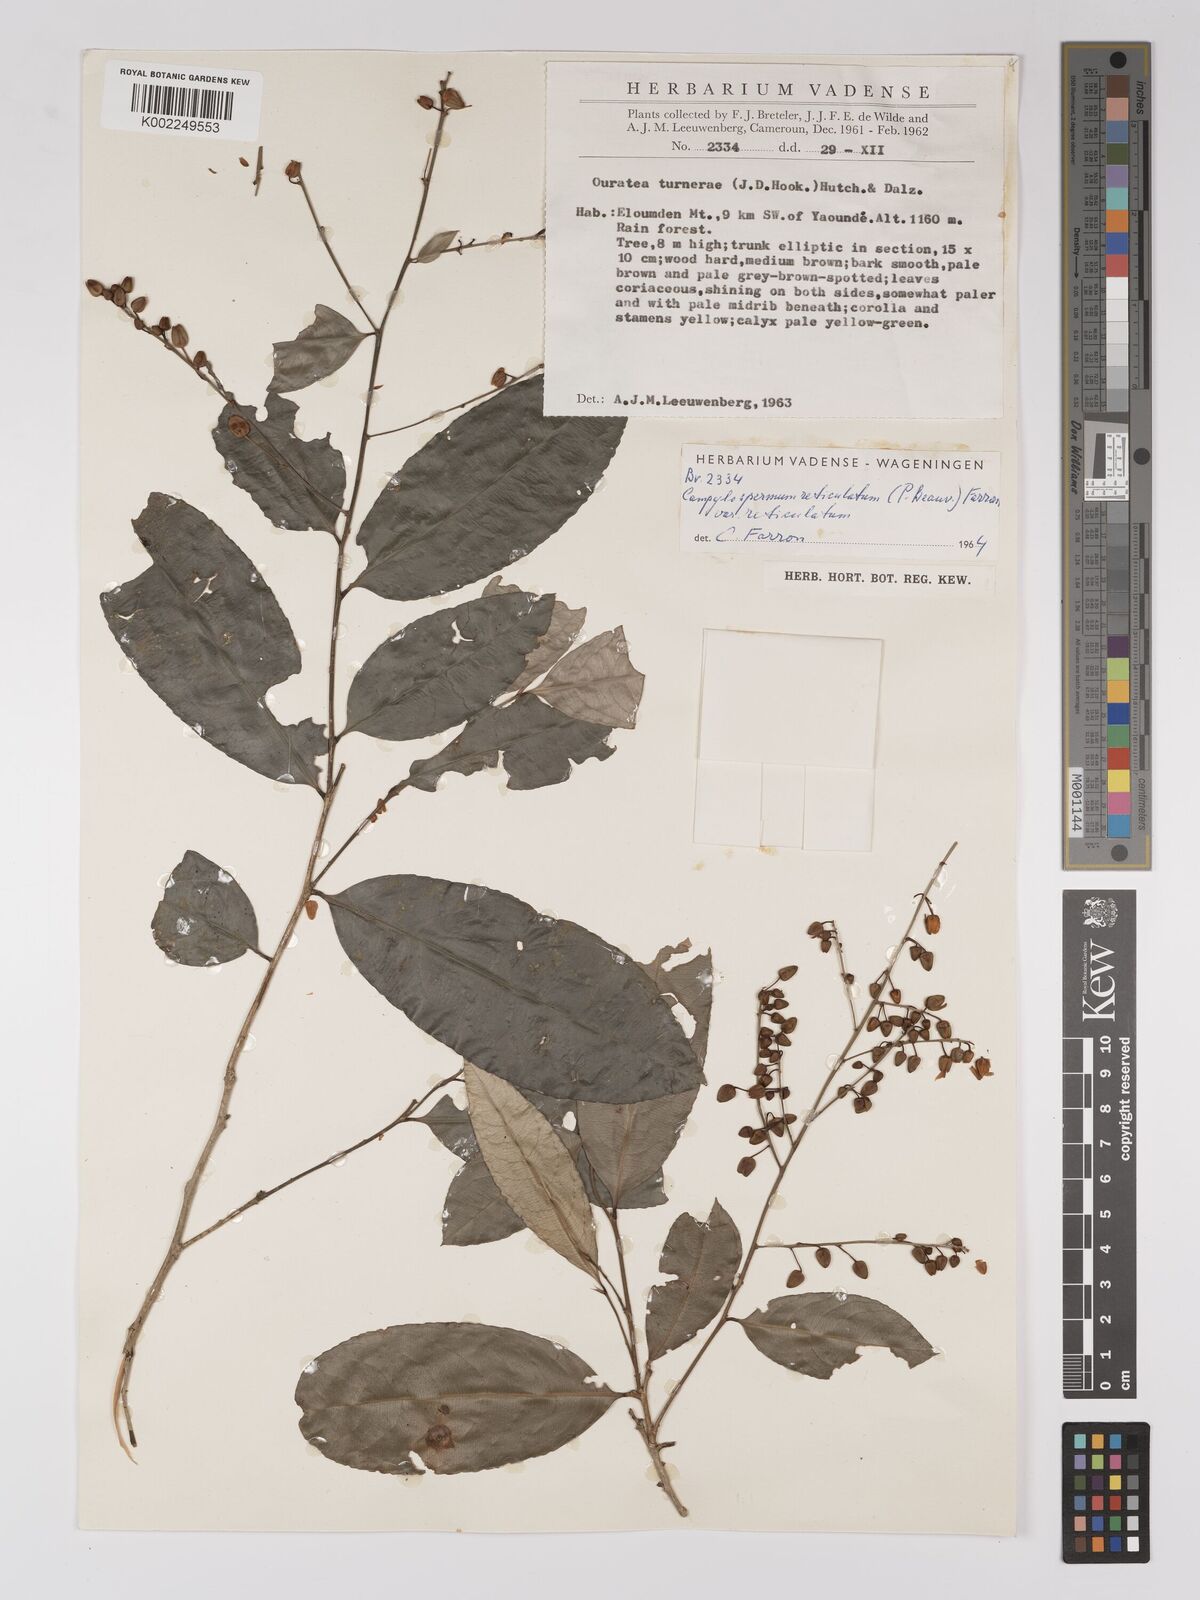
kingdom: Plantae
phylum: Tracheophyta
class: Magnoliopsida
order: Malpighiales
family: Ochnaceae
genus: Campylospermum
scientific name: Campylospermum reticulatum
